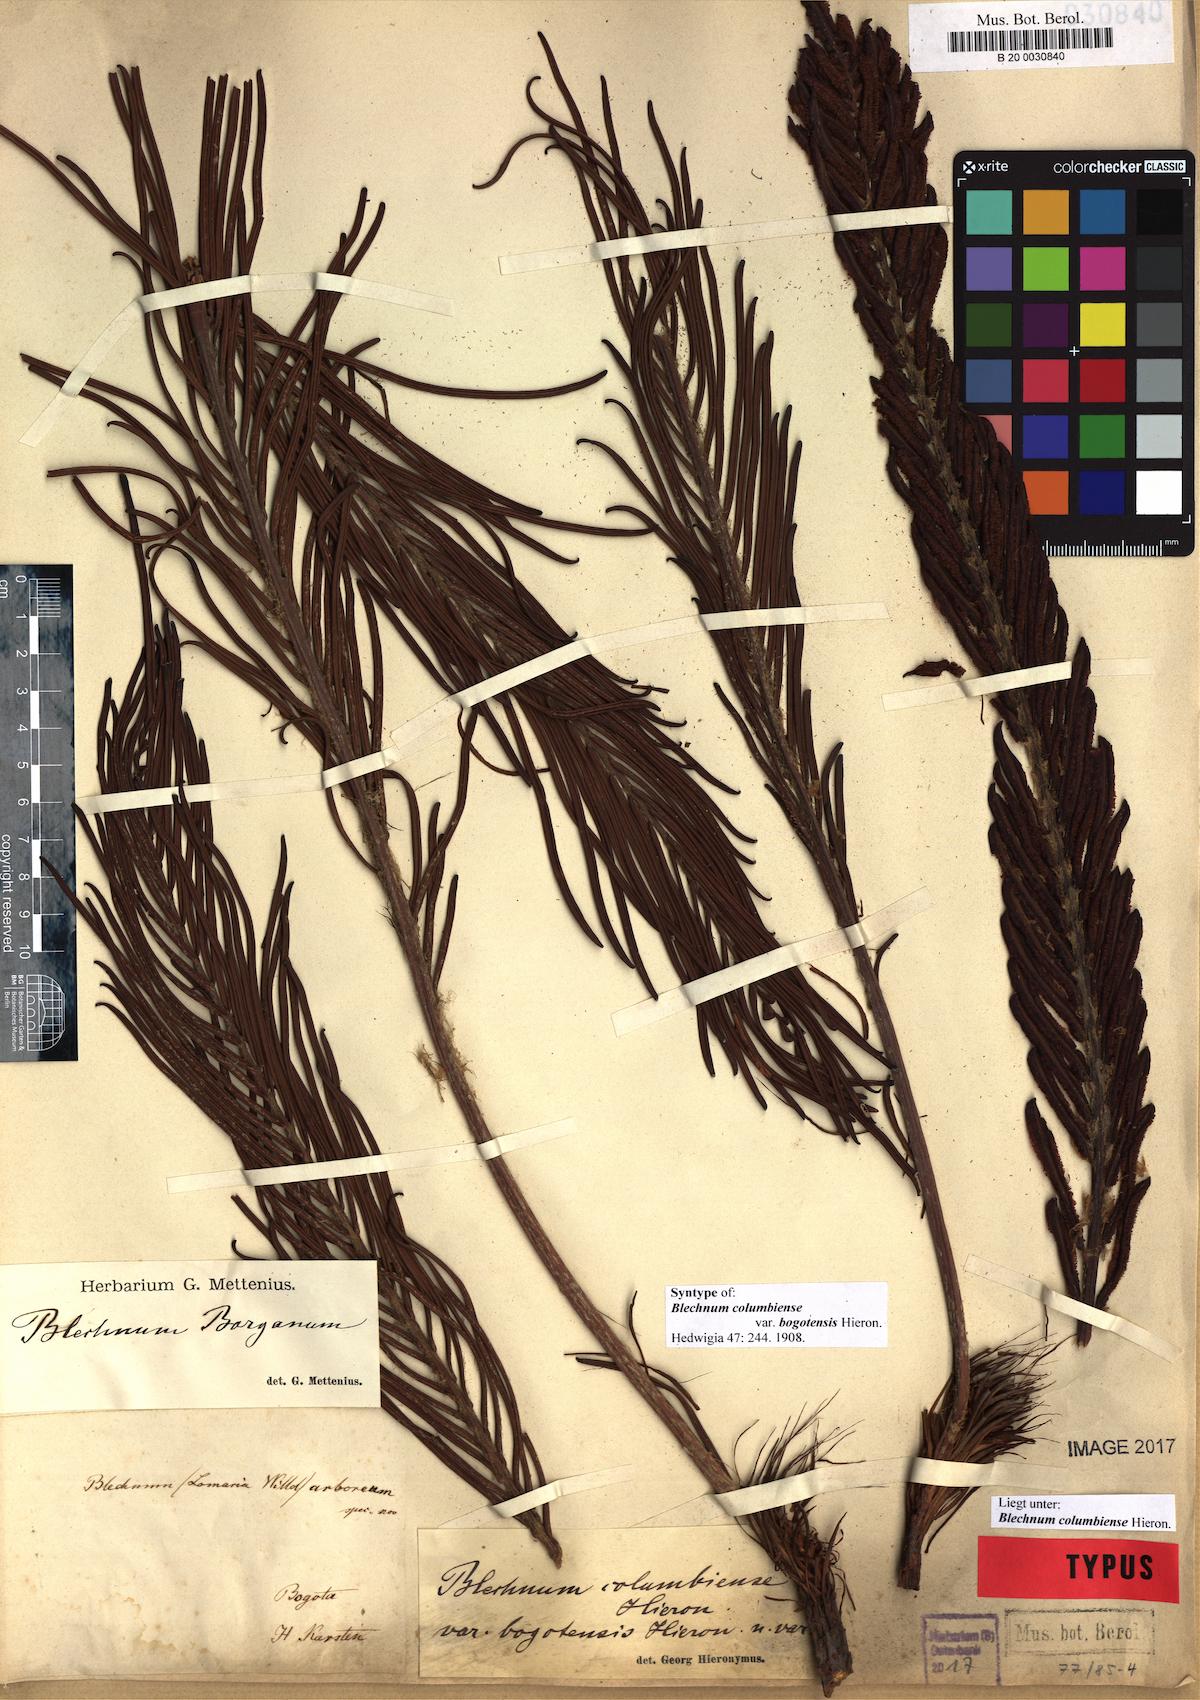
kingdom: Plantae
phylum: Tracheophyta
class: Polypodiopsida
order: Polypodiales
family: Blechnaceae
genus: Lomariocycas
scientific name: Lomariocycas columbiensis
